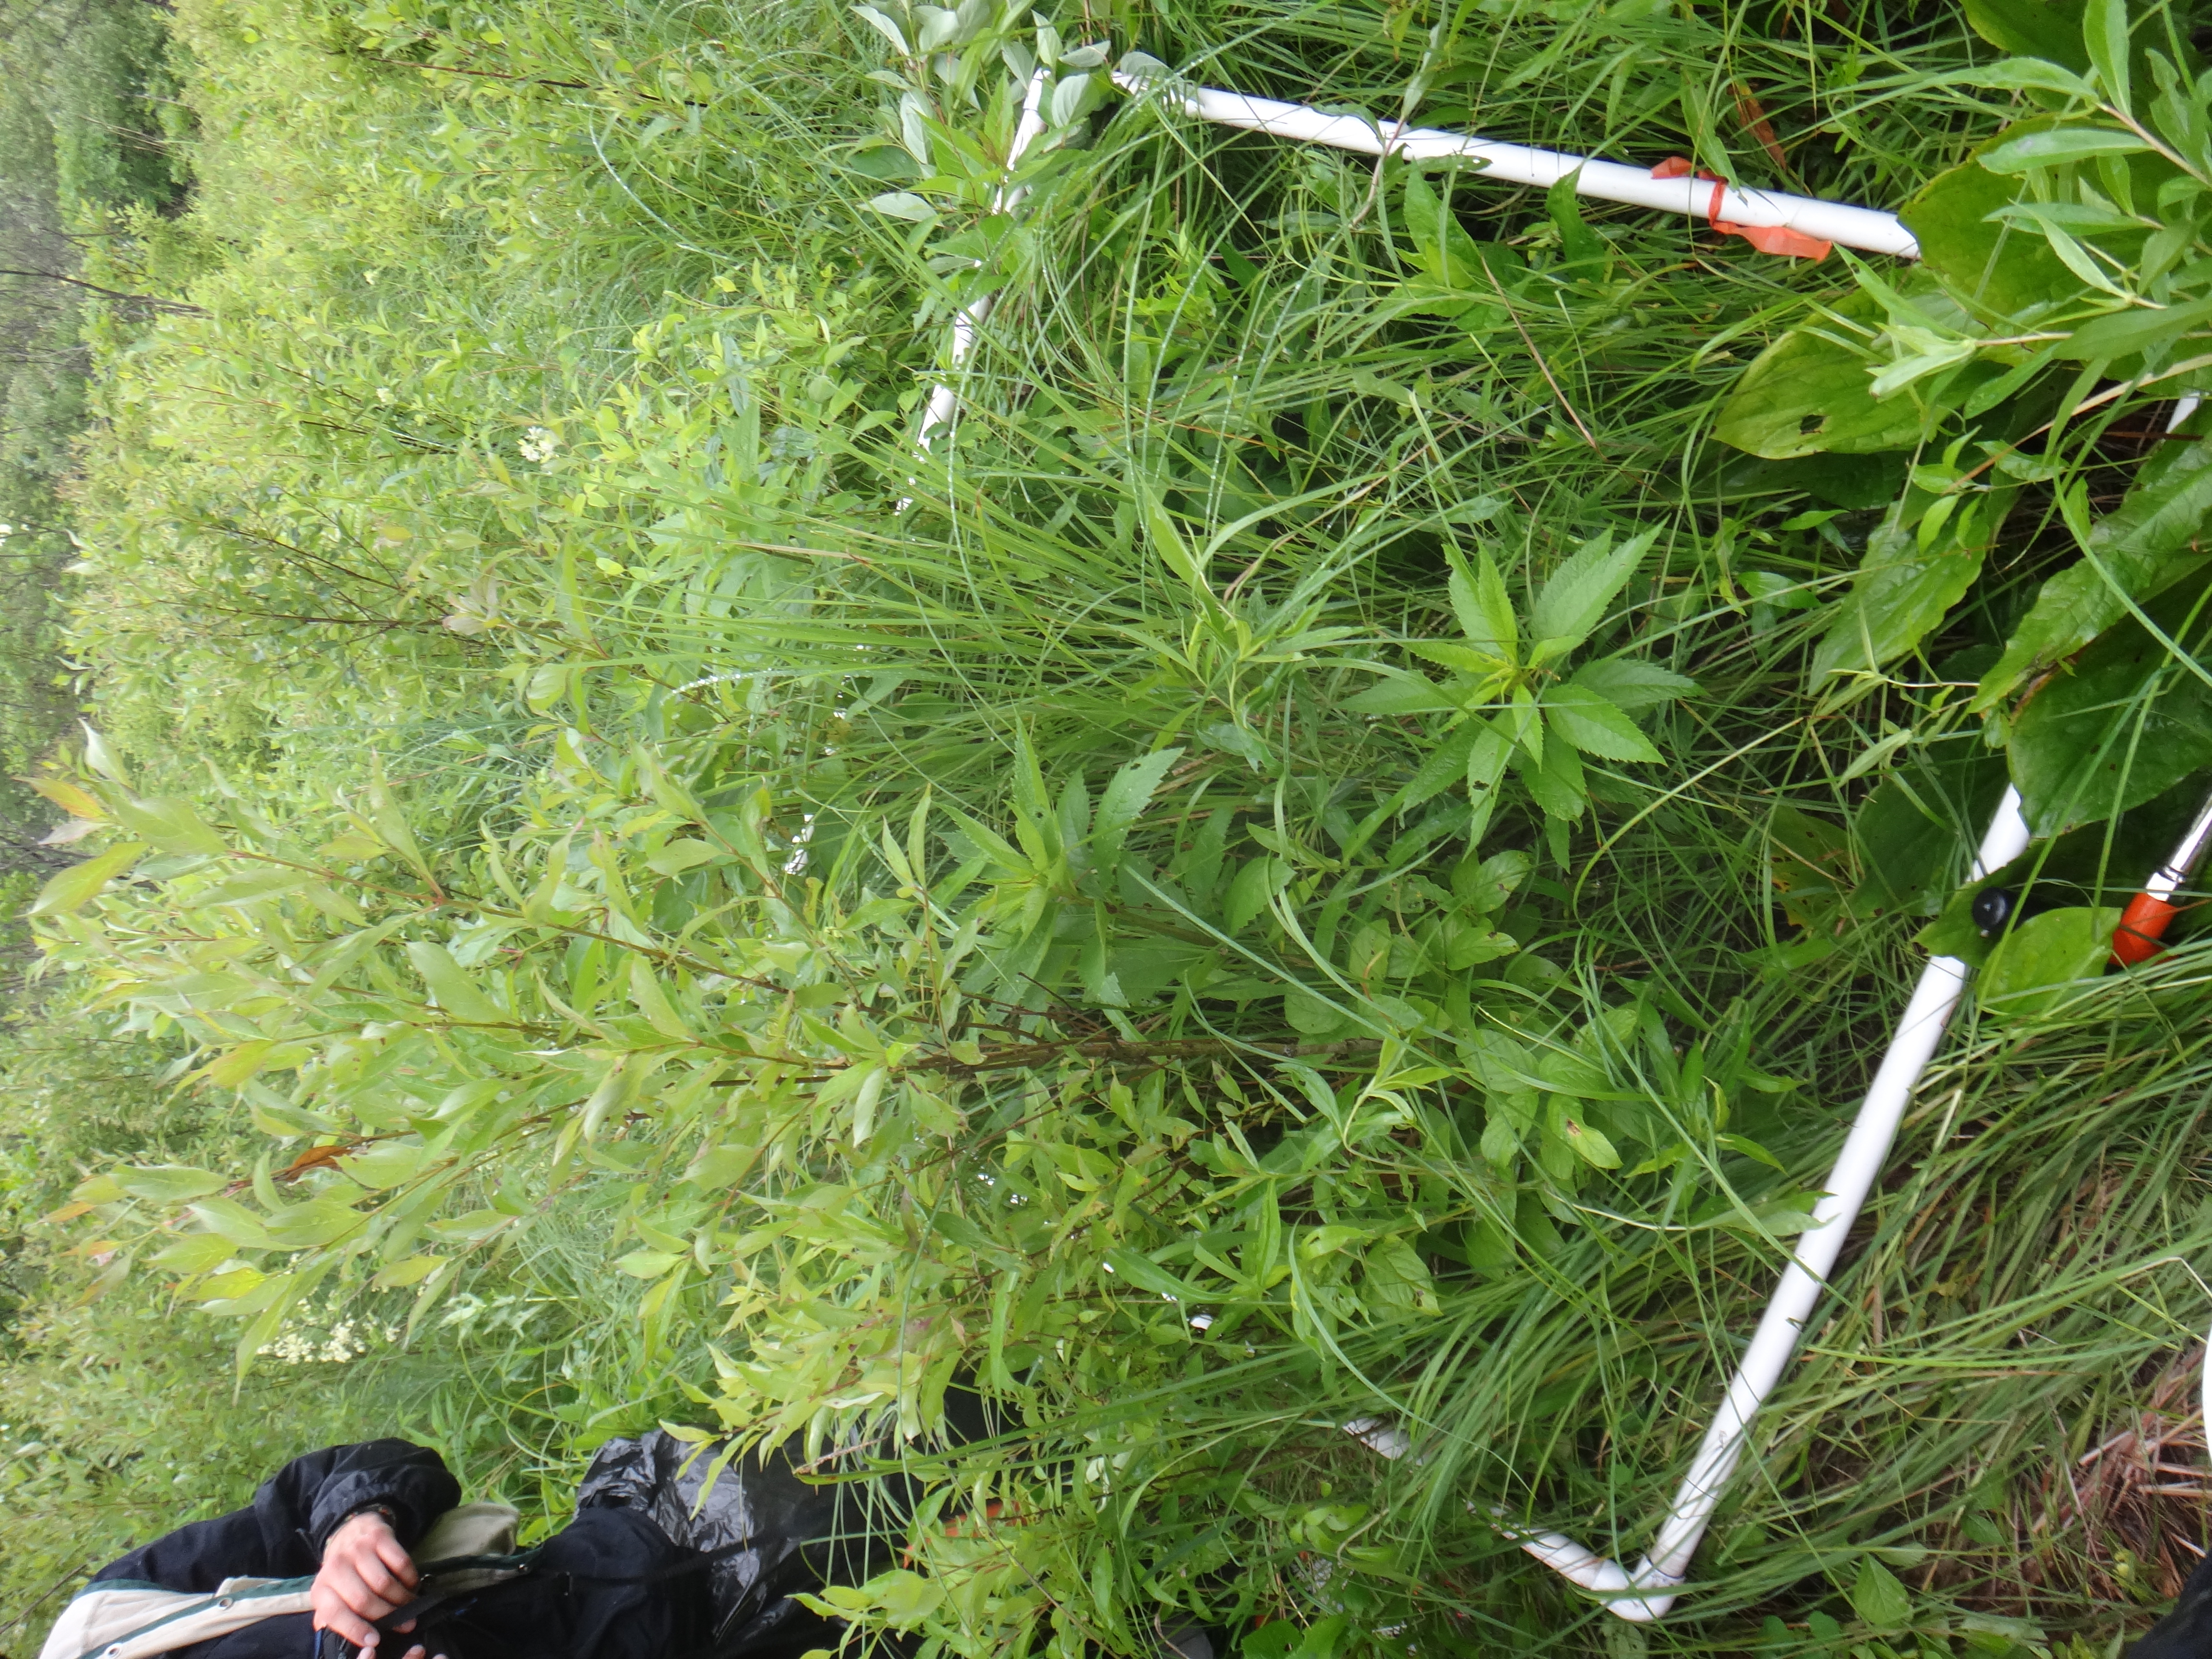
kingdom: Plantae
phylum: Tracheophyta
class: Magnoliopsida
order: Rosales
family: Rhamnaceae
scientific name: Rhamnaceae
